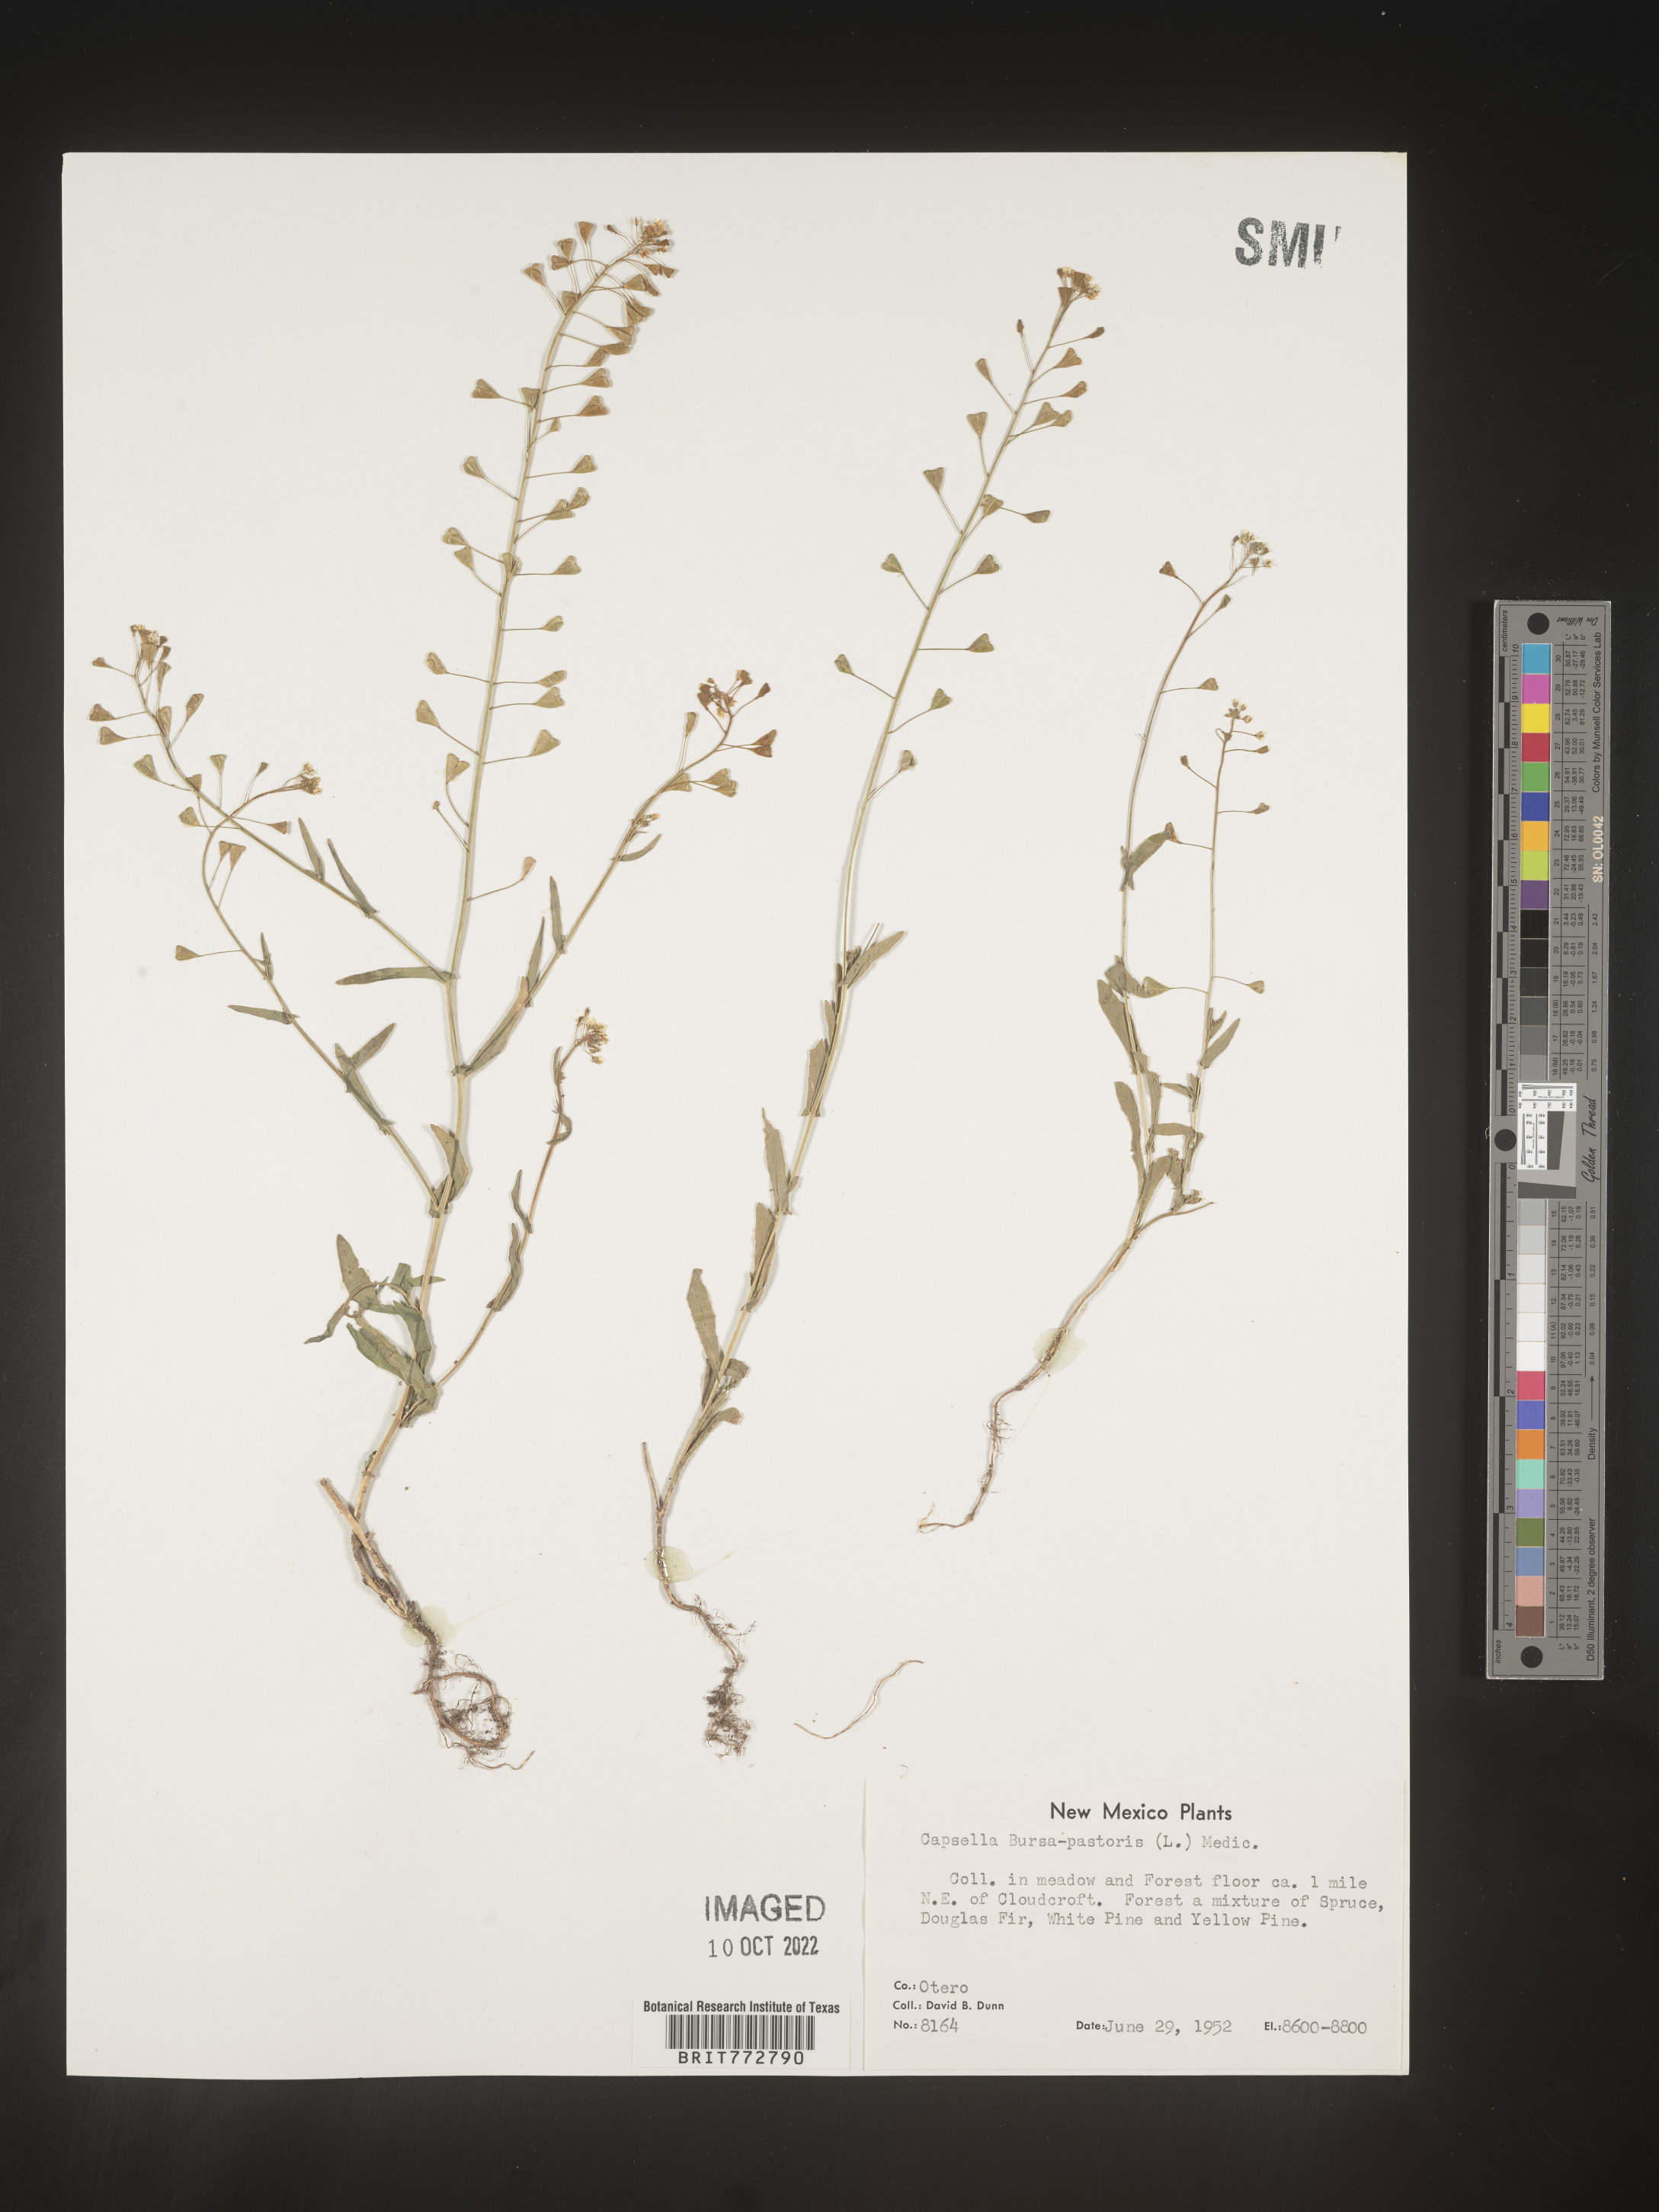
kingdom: Plantae
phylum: Tracheophyta
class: Magnoliopsida
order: Brassicales
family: Brassicaceae
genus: Capsella
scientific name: Capsella bursa-pastoris
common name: Shepherd's purse
